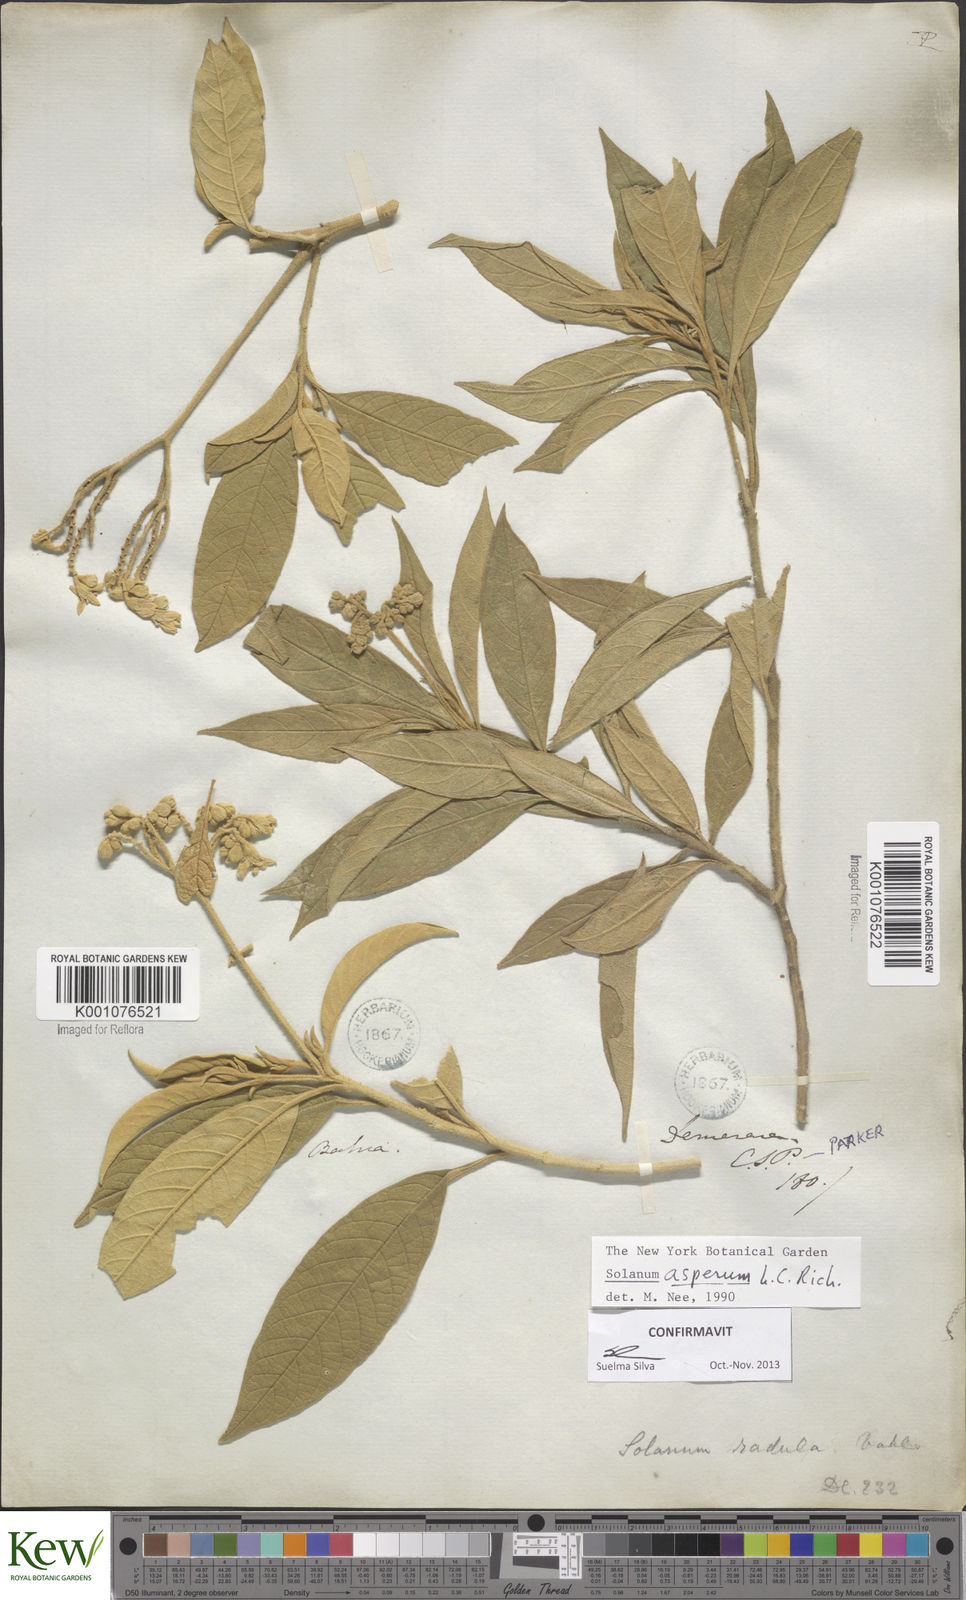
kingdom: Plantae
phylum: Tracheophyta
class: Magnoliopsida
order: Solanales
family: Solanaceae
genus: Solanum
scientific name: Solanum asperum
